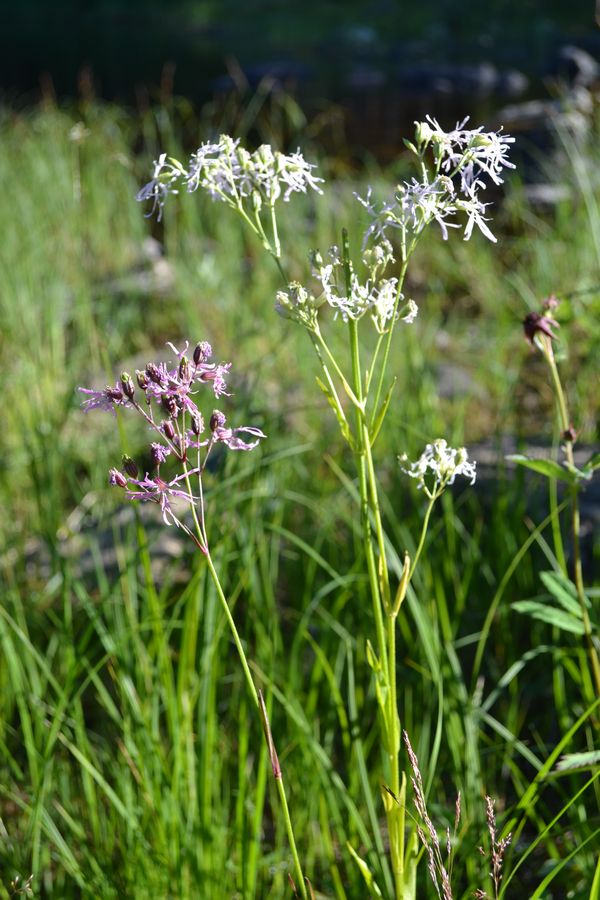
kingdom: Plantae
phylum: Tracheophyta
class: Magnoliopsida
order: Caryophyllales
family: Caryophyllaceae
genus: Silene
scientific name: Silene flos-cuculi
